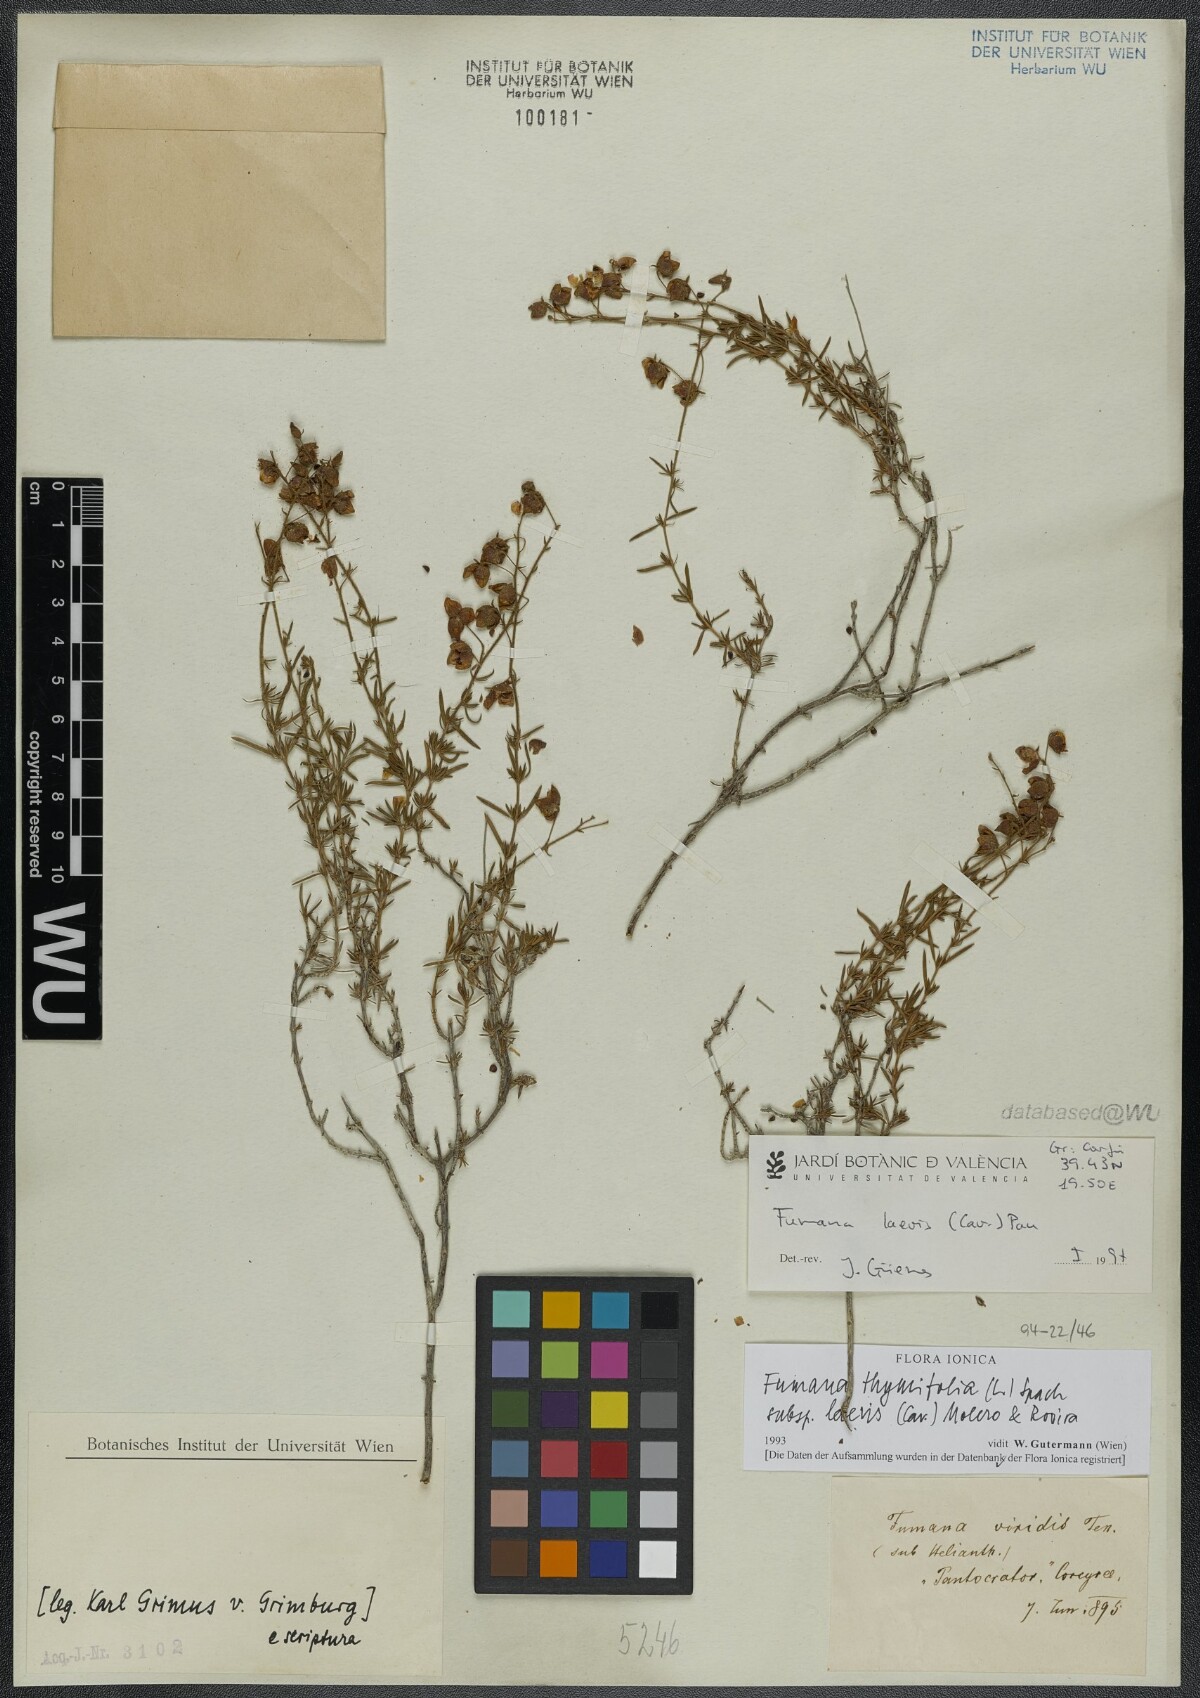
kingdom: Plantae
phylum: Tracheophyta
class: Magnoliopsida
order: Malvales
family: Cistaceae
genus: Fumana
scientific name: Fumana laevis
